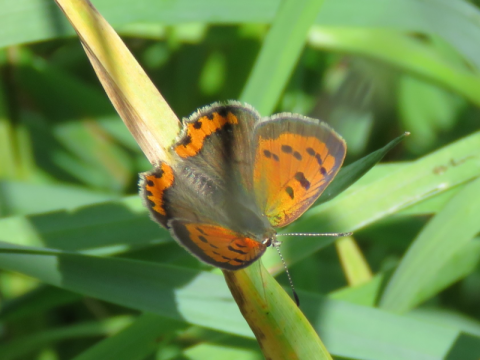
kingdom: Animalia
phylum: Arthropoda
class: Insecta
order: Lepidoptera
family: Lycaenidae
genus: Lycaena
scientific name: Lycaena phlaeas
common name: American Copper
